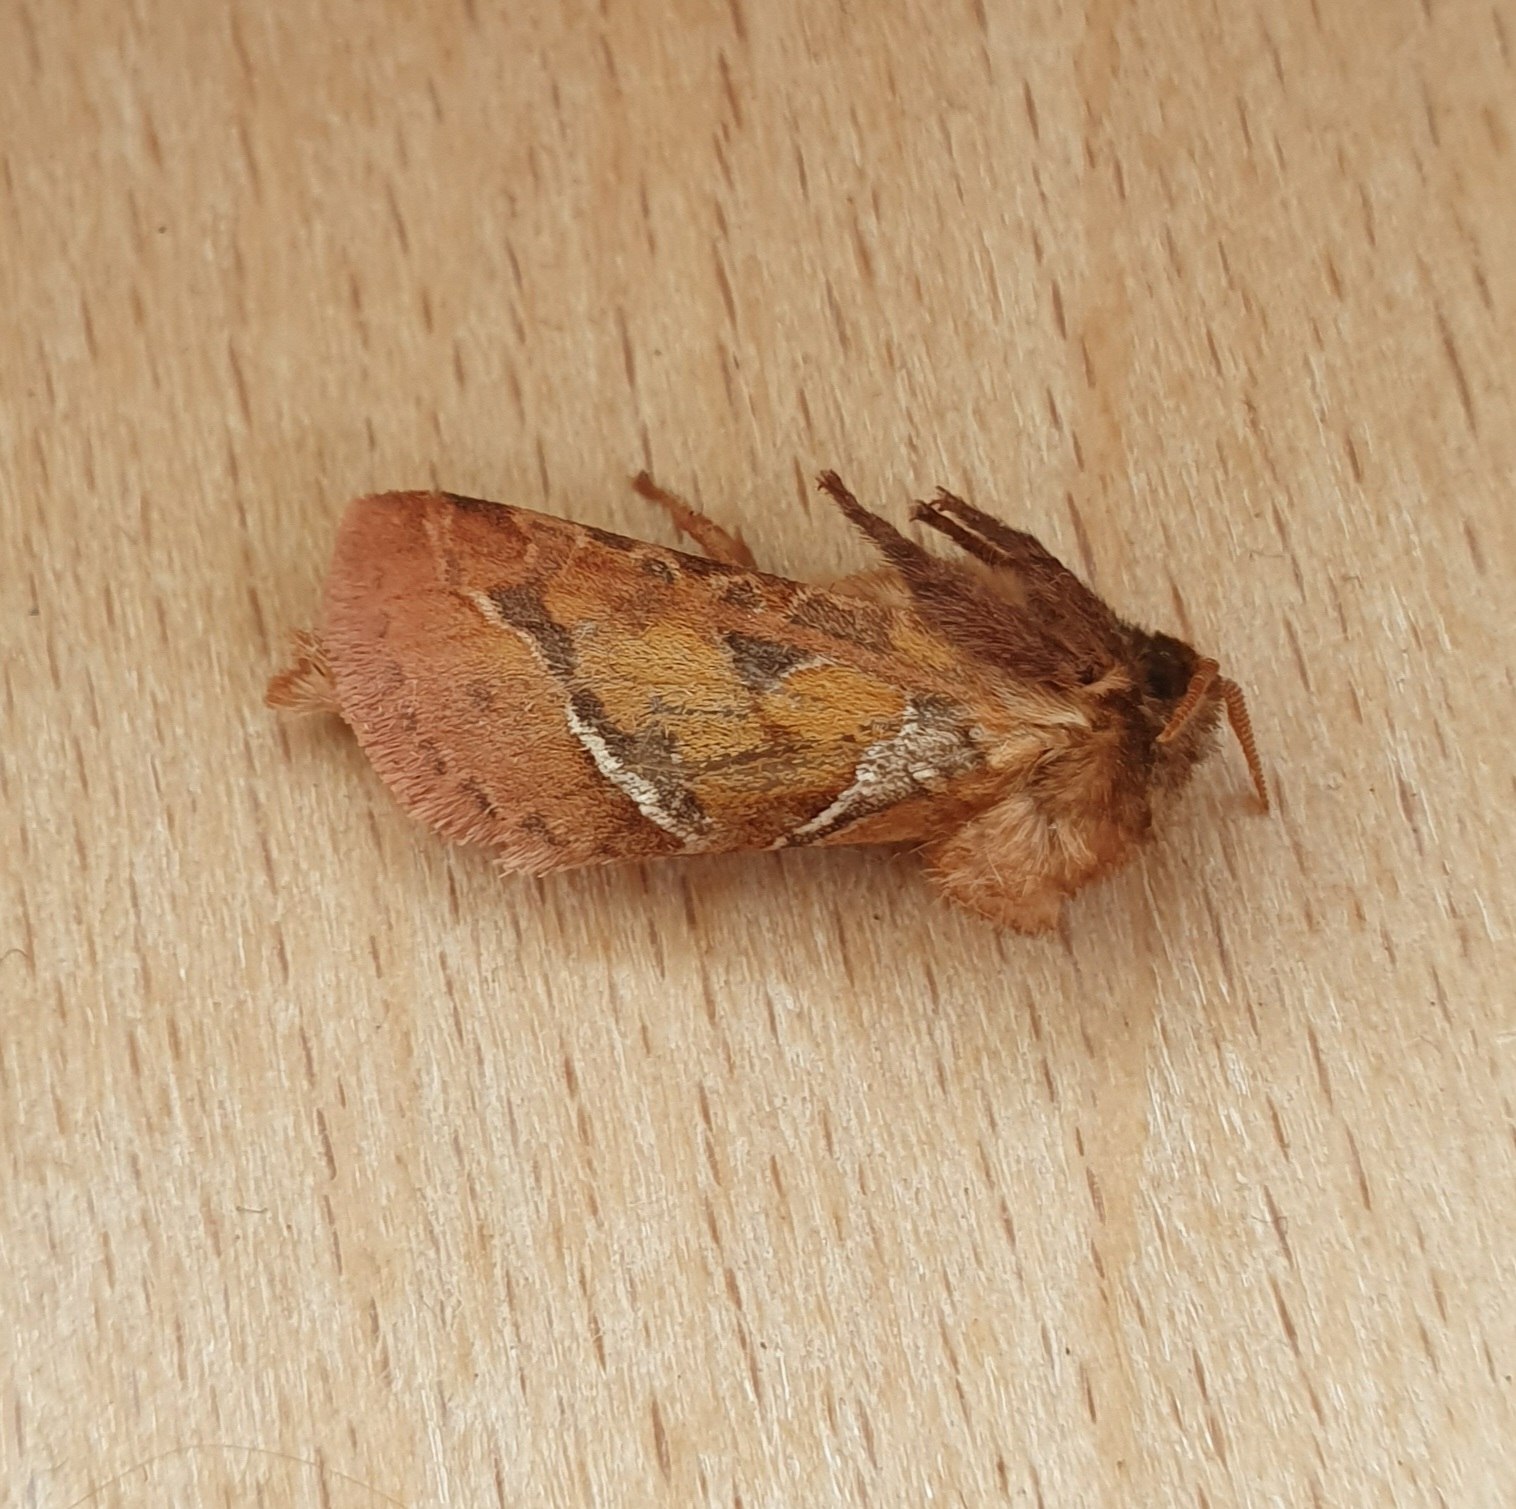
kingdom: Animalia
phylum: Arthropoda
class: Insecta
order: Lepidoptera
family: Hepialidae
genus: Triodia
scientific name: Triodia sylvina
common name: Skræpperodæder
